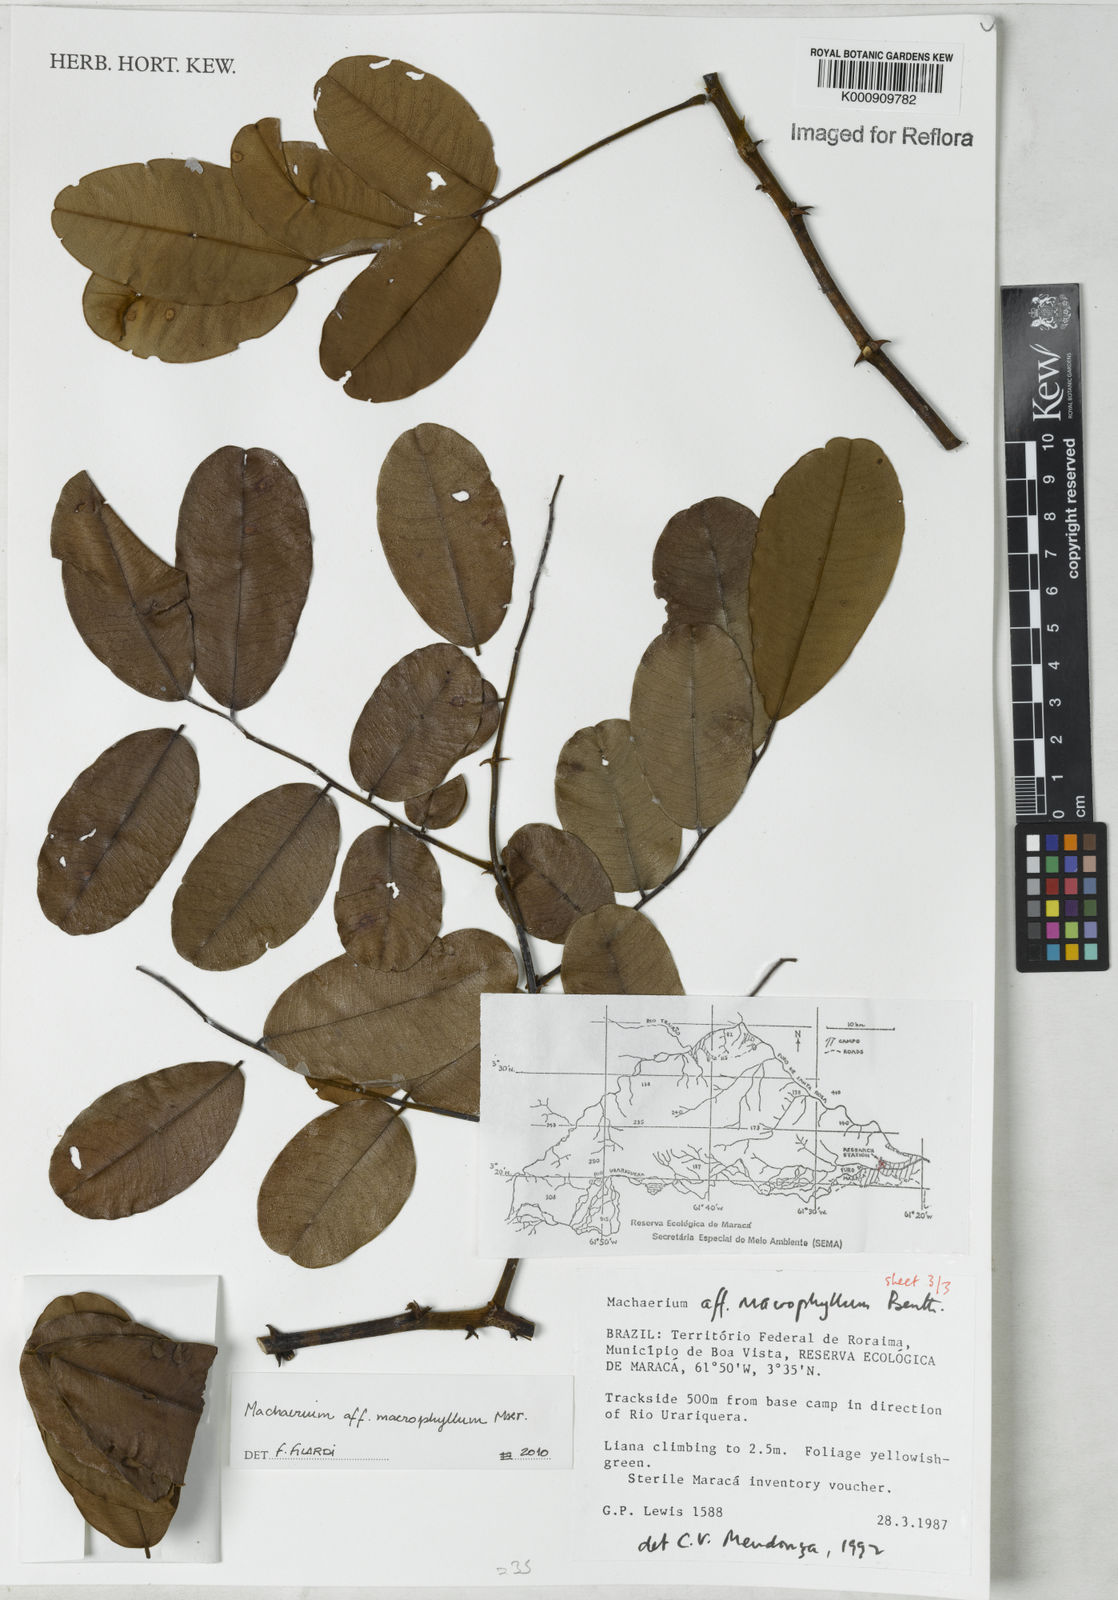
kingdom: Plantae
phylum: Tracheophyta
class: Magnoliopsida
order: Fabales
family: Fabaceae
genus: Machaerium
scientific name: Machaerium macrophyllum
